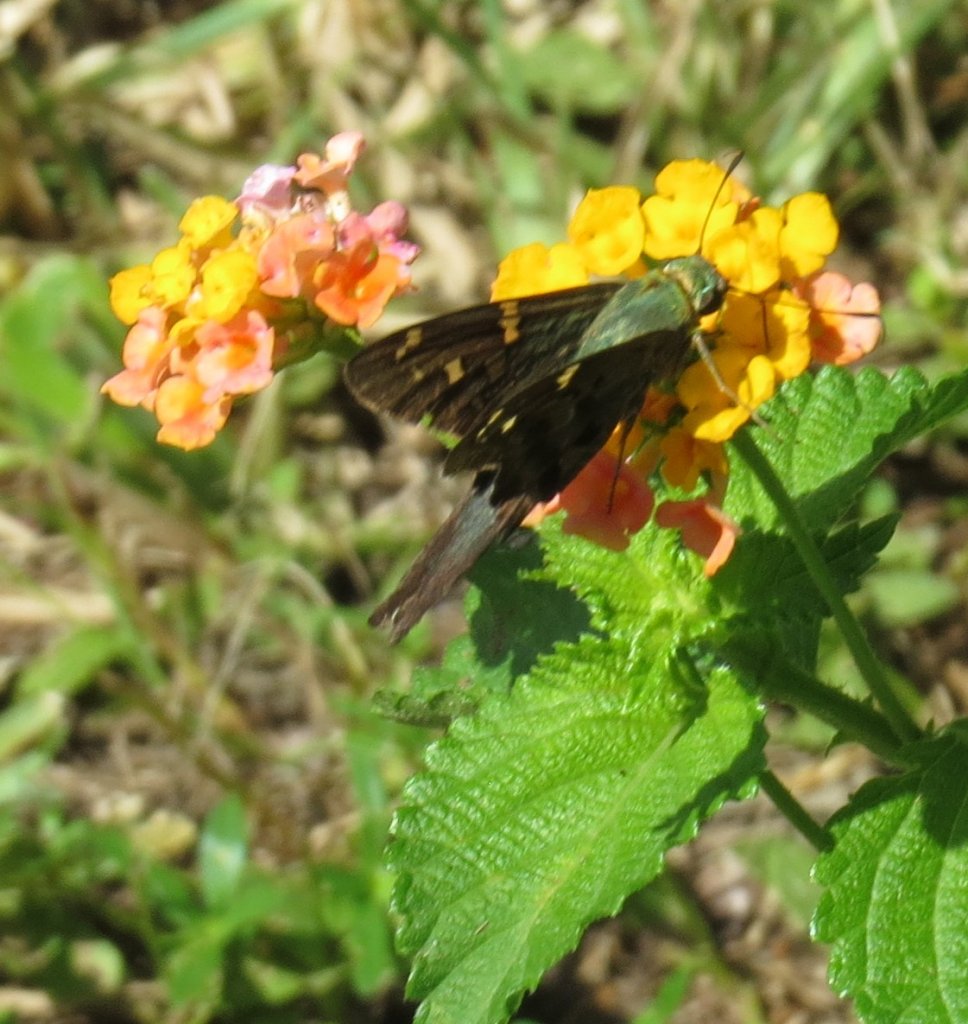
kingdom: Animalia
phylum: Arthropoda
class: Insecta
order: Lepidoptera
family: Hesperiidae
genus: Urbanus
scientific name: Urbanus proteus
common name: Long-tailed Skipper
